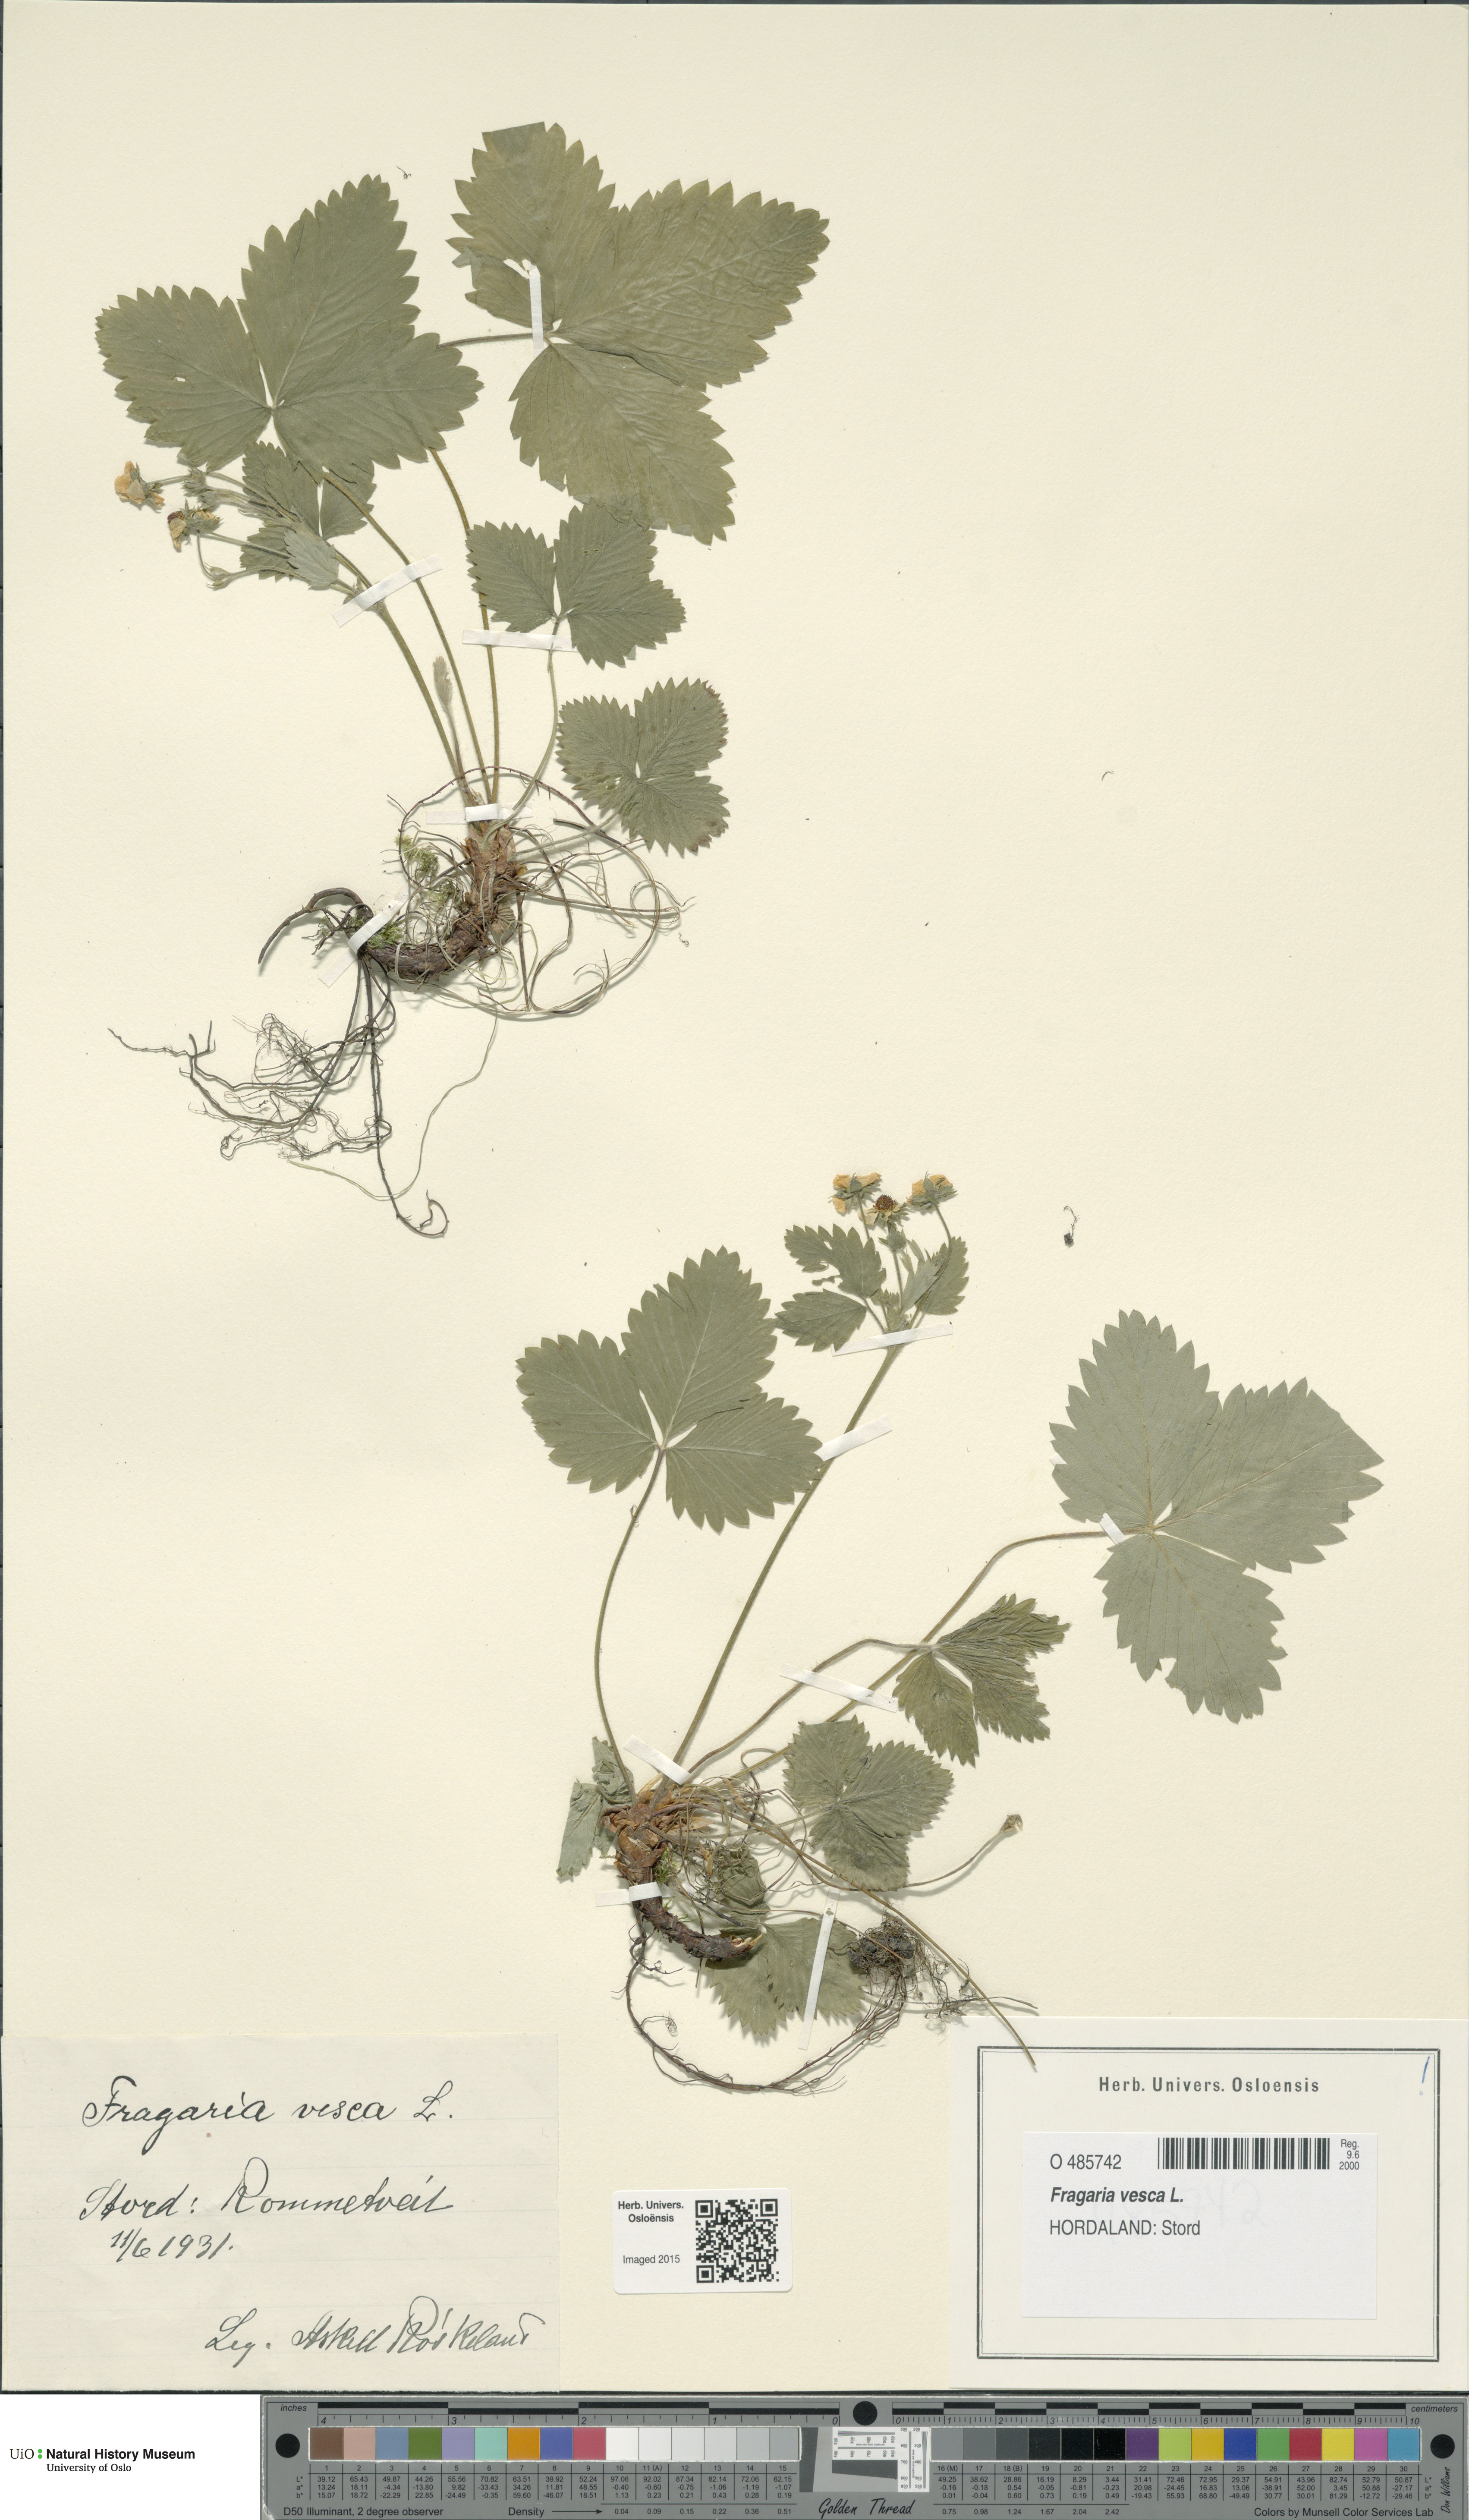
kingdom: Plantae
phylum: Tracheophyta
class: Magnoliopsida
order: Rosales
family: Rosaceae
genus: Fragaria
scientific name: Fragaria vesca
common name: Wild strawberry
